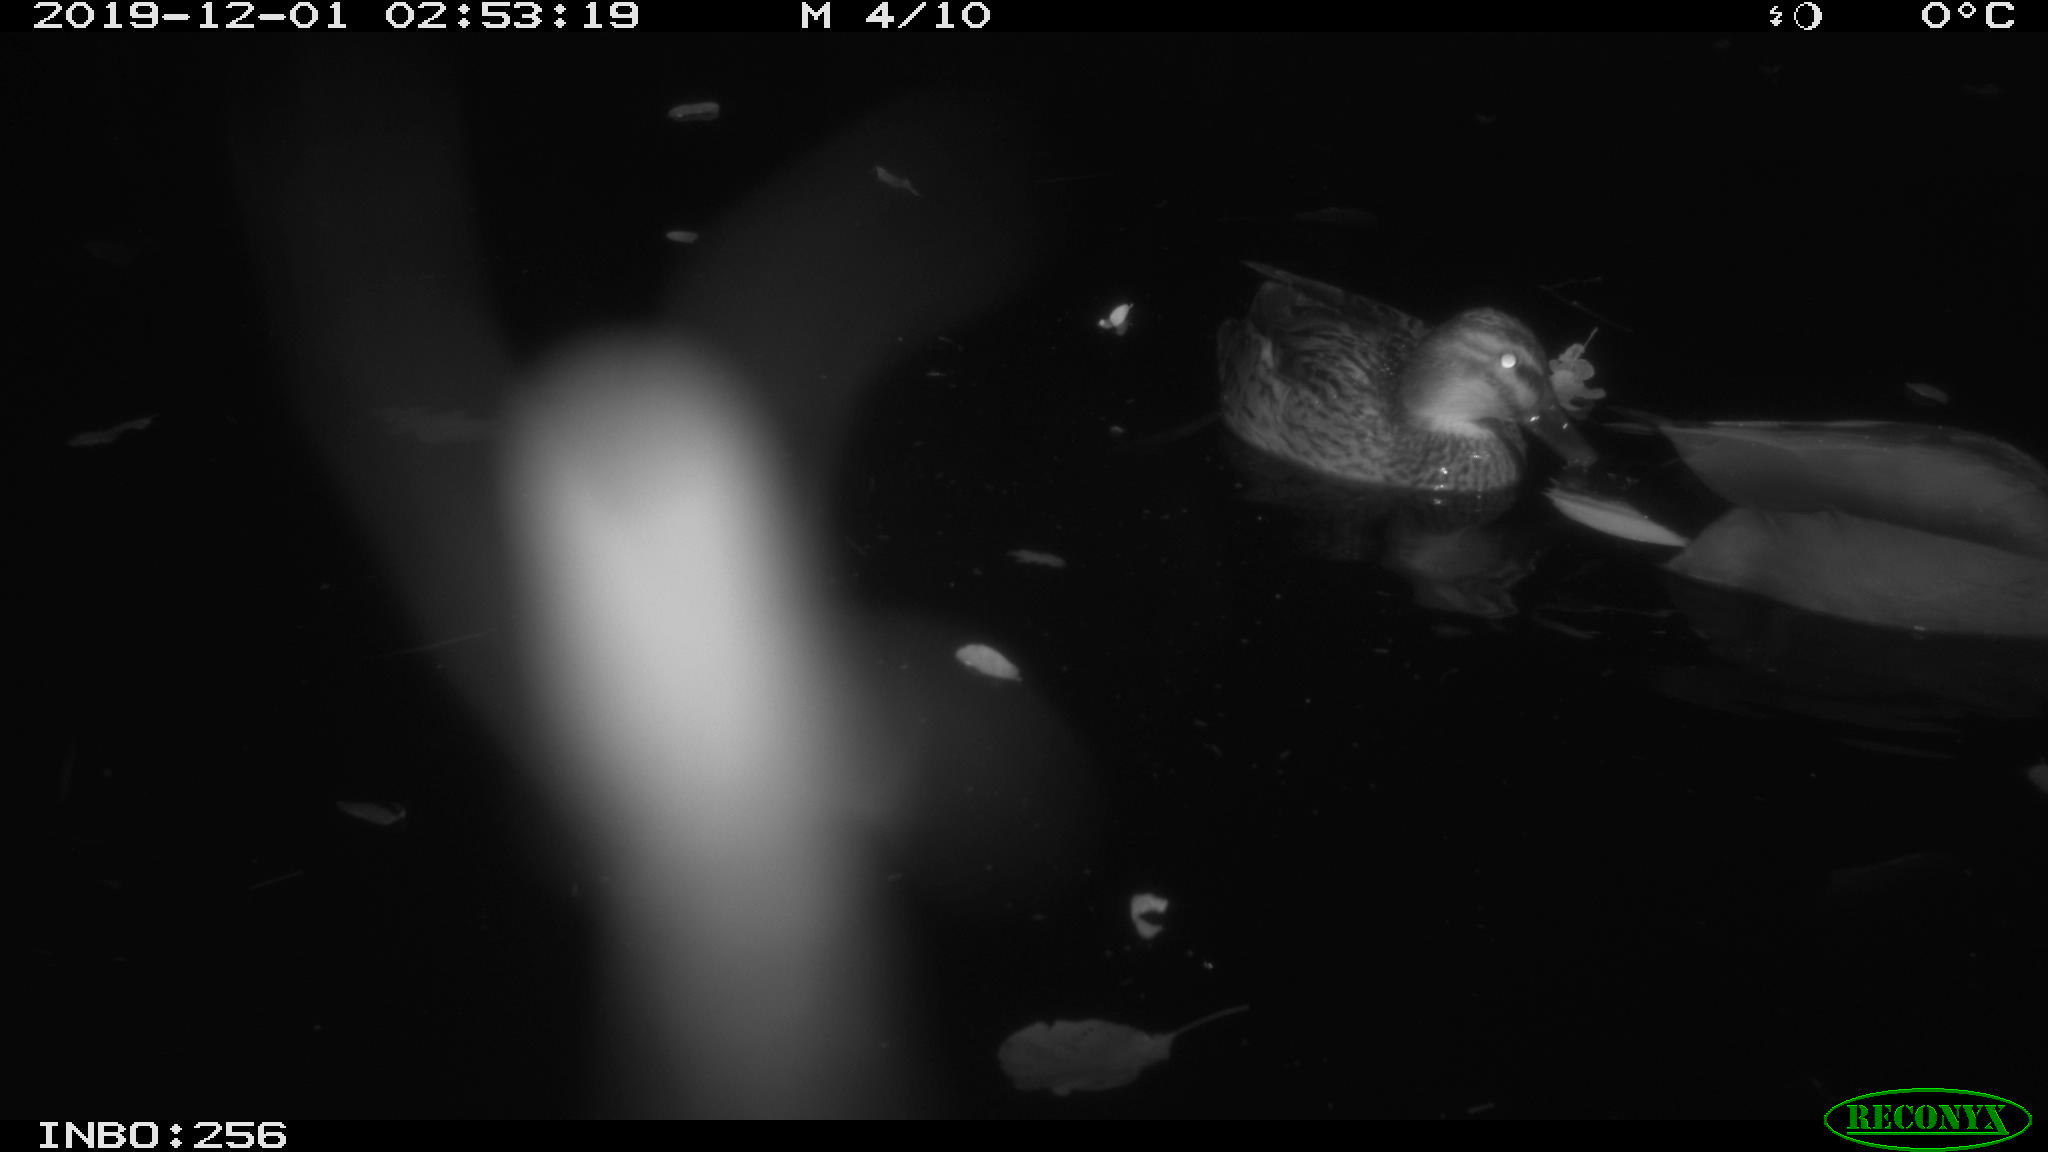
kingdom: Animalia
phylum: Chordata
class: Aves
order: Anseriformes
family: Anatidae
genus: Anas
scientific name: Anas platyrhynchos
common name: Mallard
